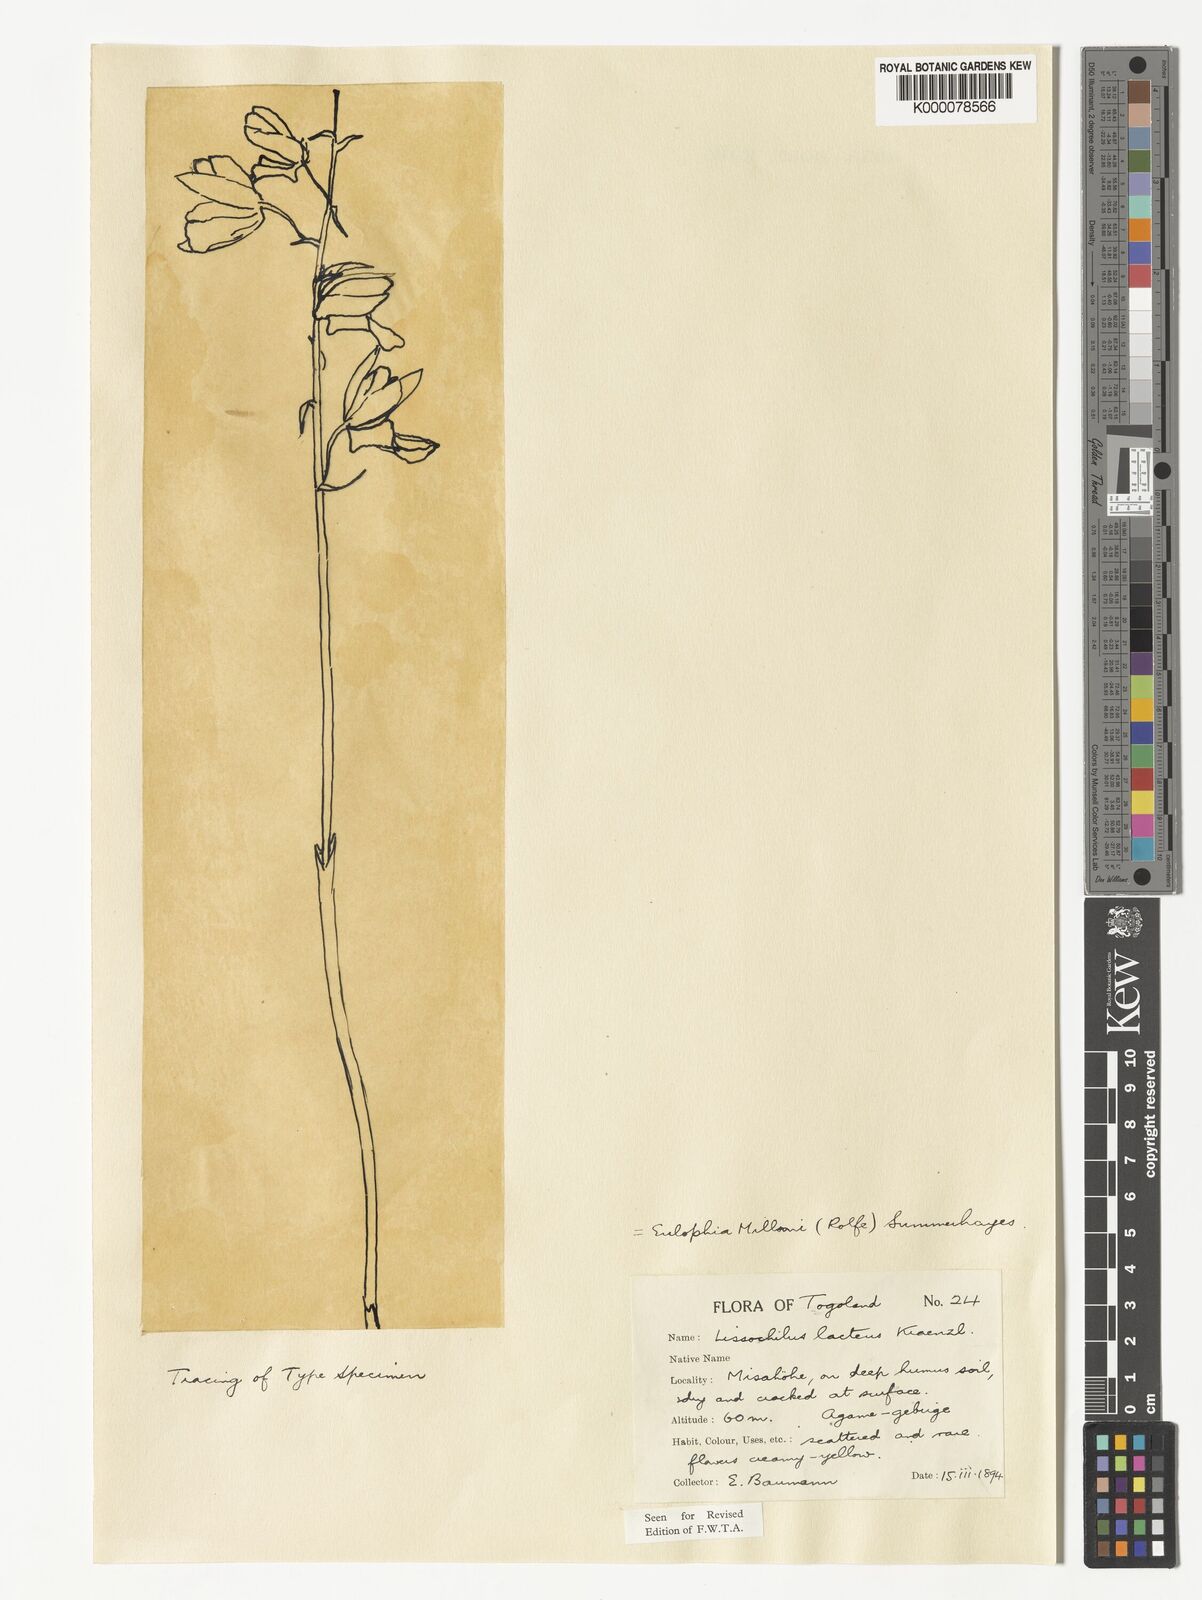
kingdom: Plantae
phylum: Tracheophyta
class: Liliopsida
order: Asparagales
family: Orchidaceae
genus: Eulophia
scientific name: Eulophia flavopurpurea
